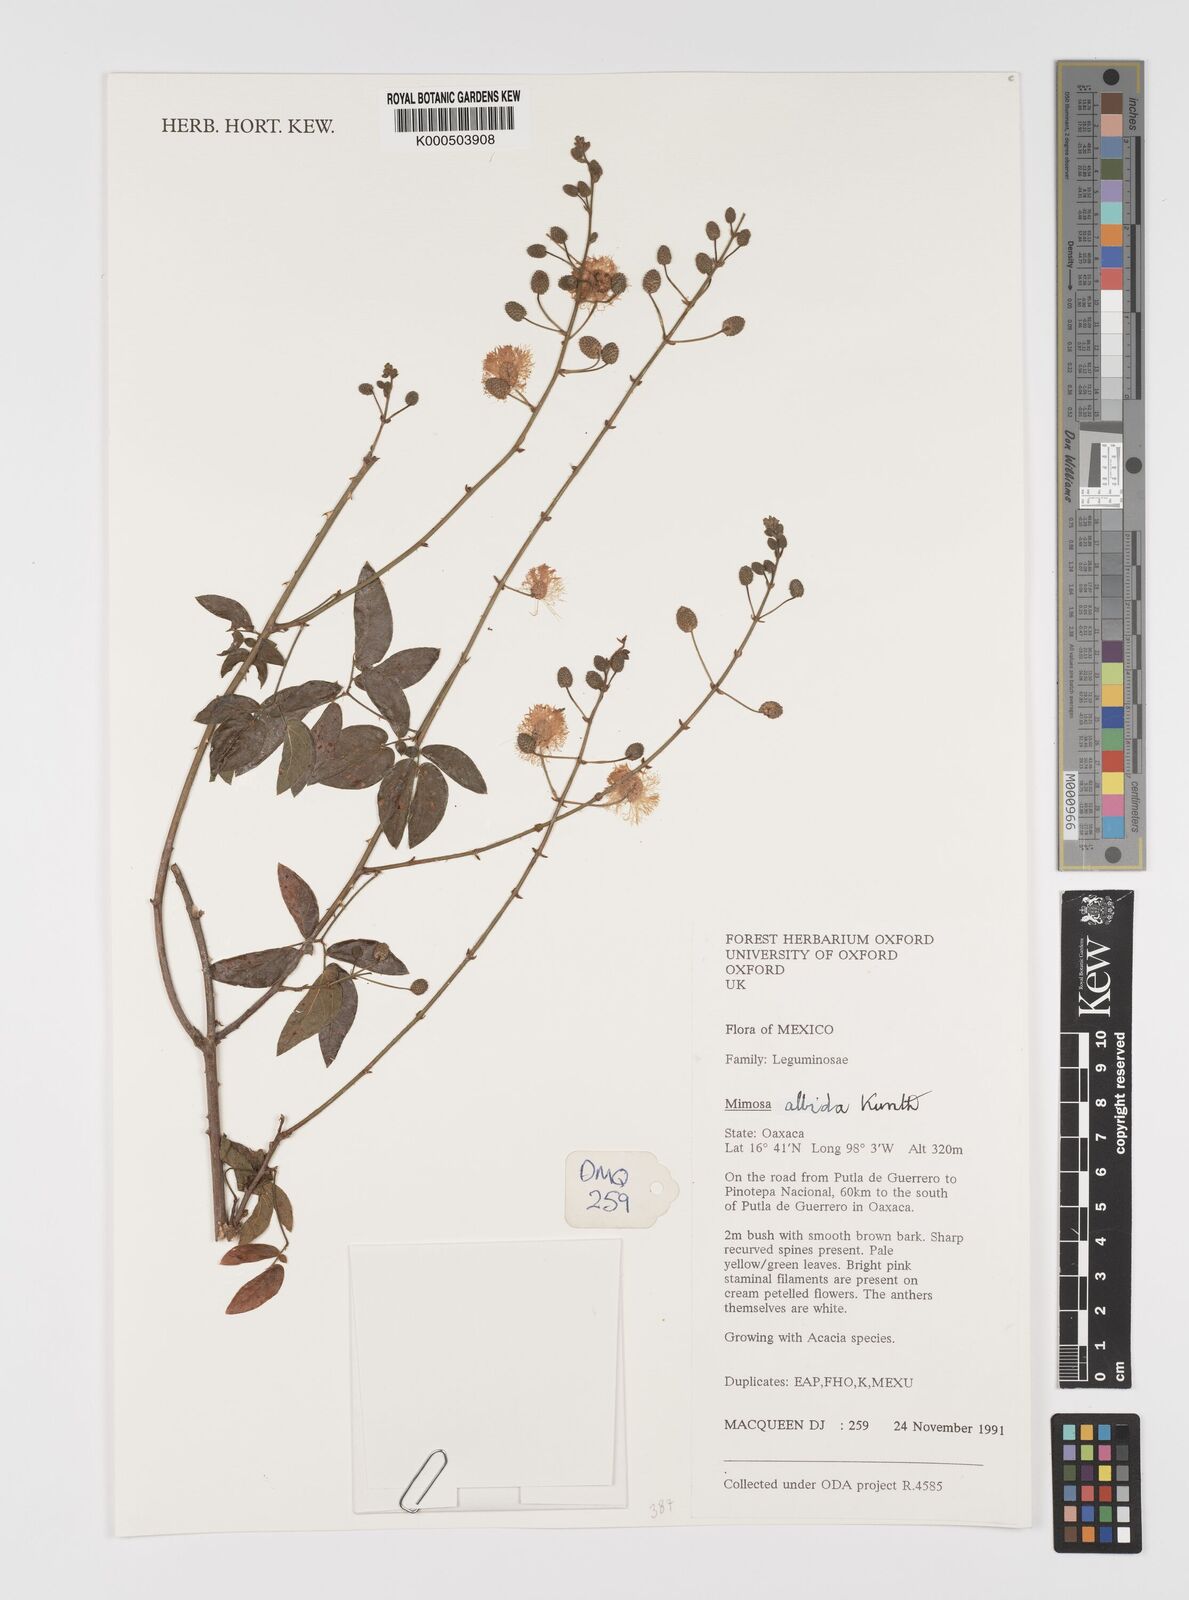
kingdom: Plantae
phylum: Tracheophyta
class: Magnoliopsida
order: Fabales
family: Fabaceae
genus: Mimosa
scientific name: Mimosa albida
